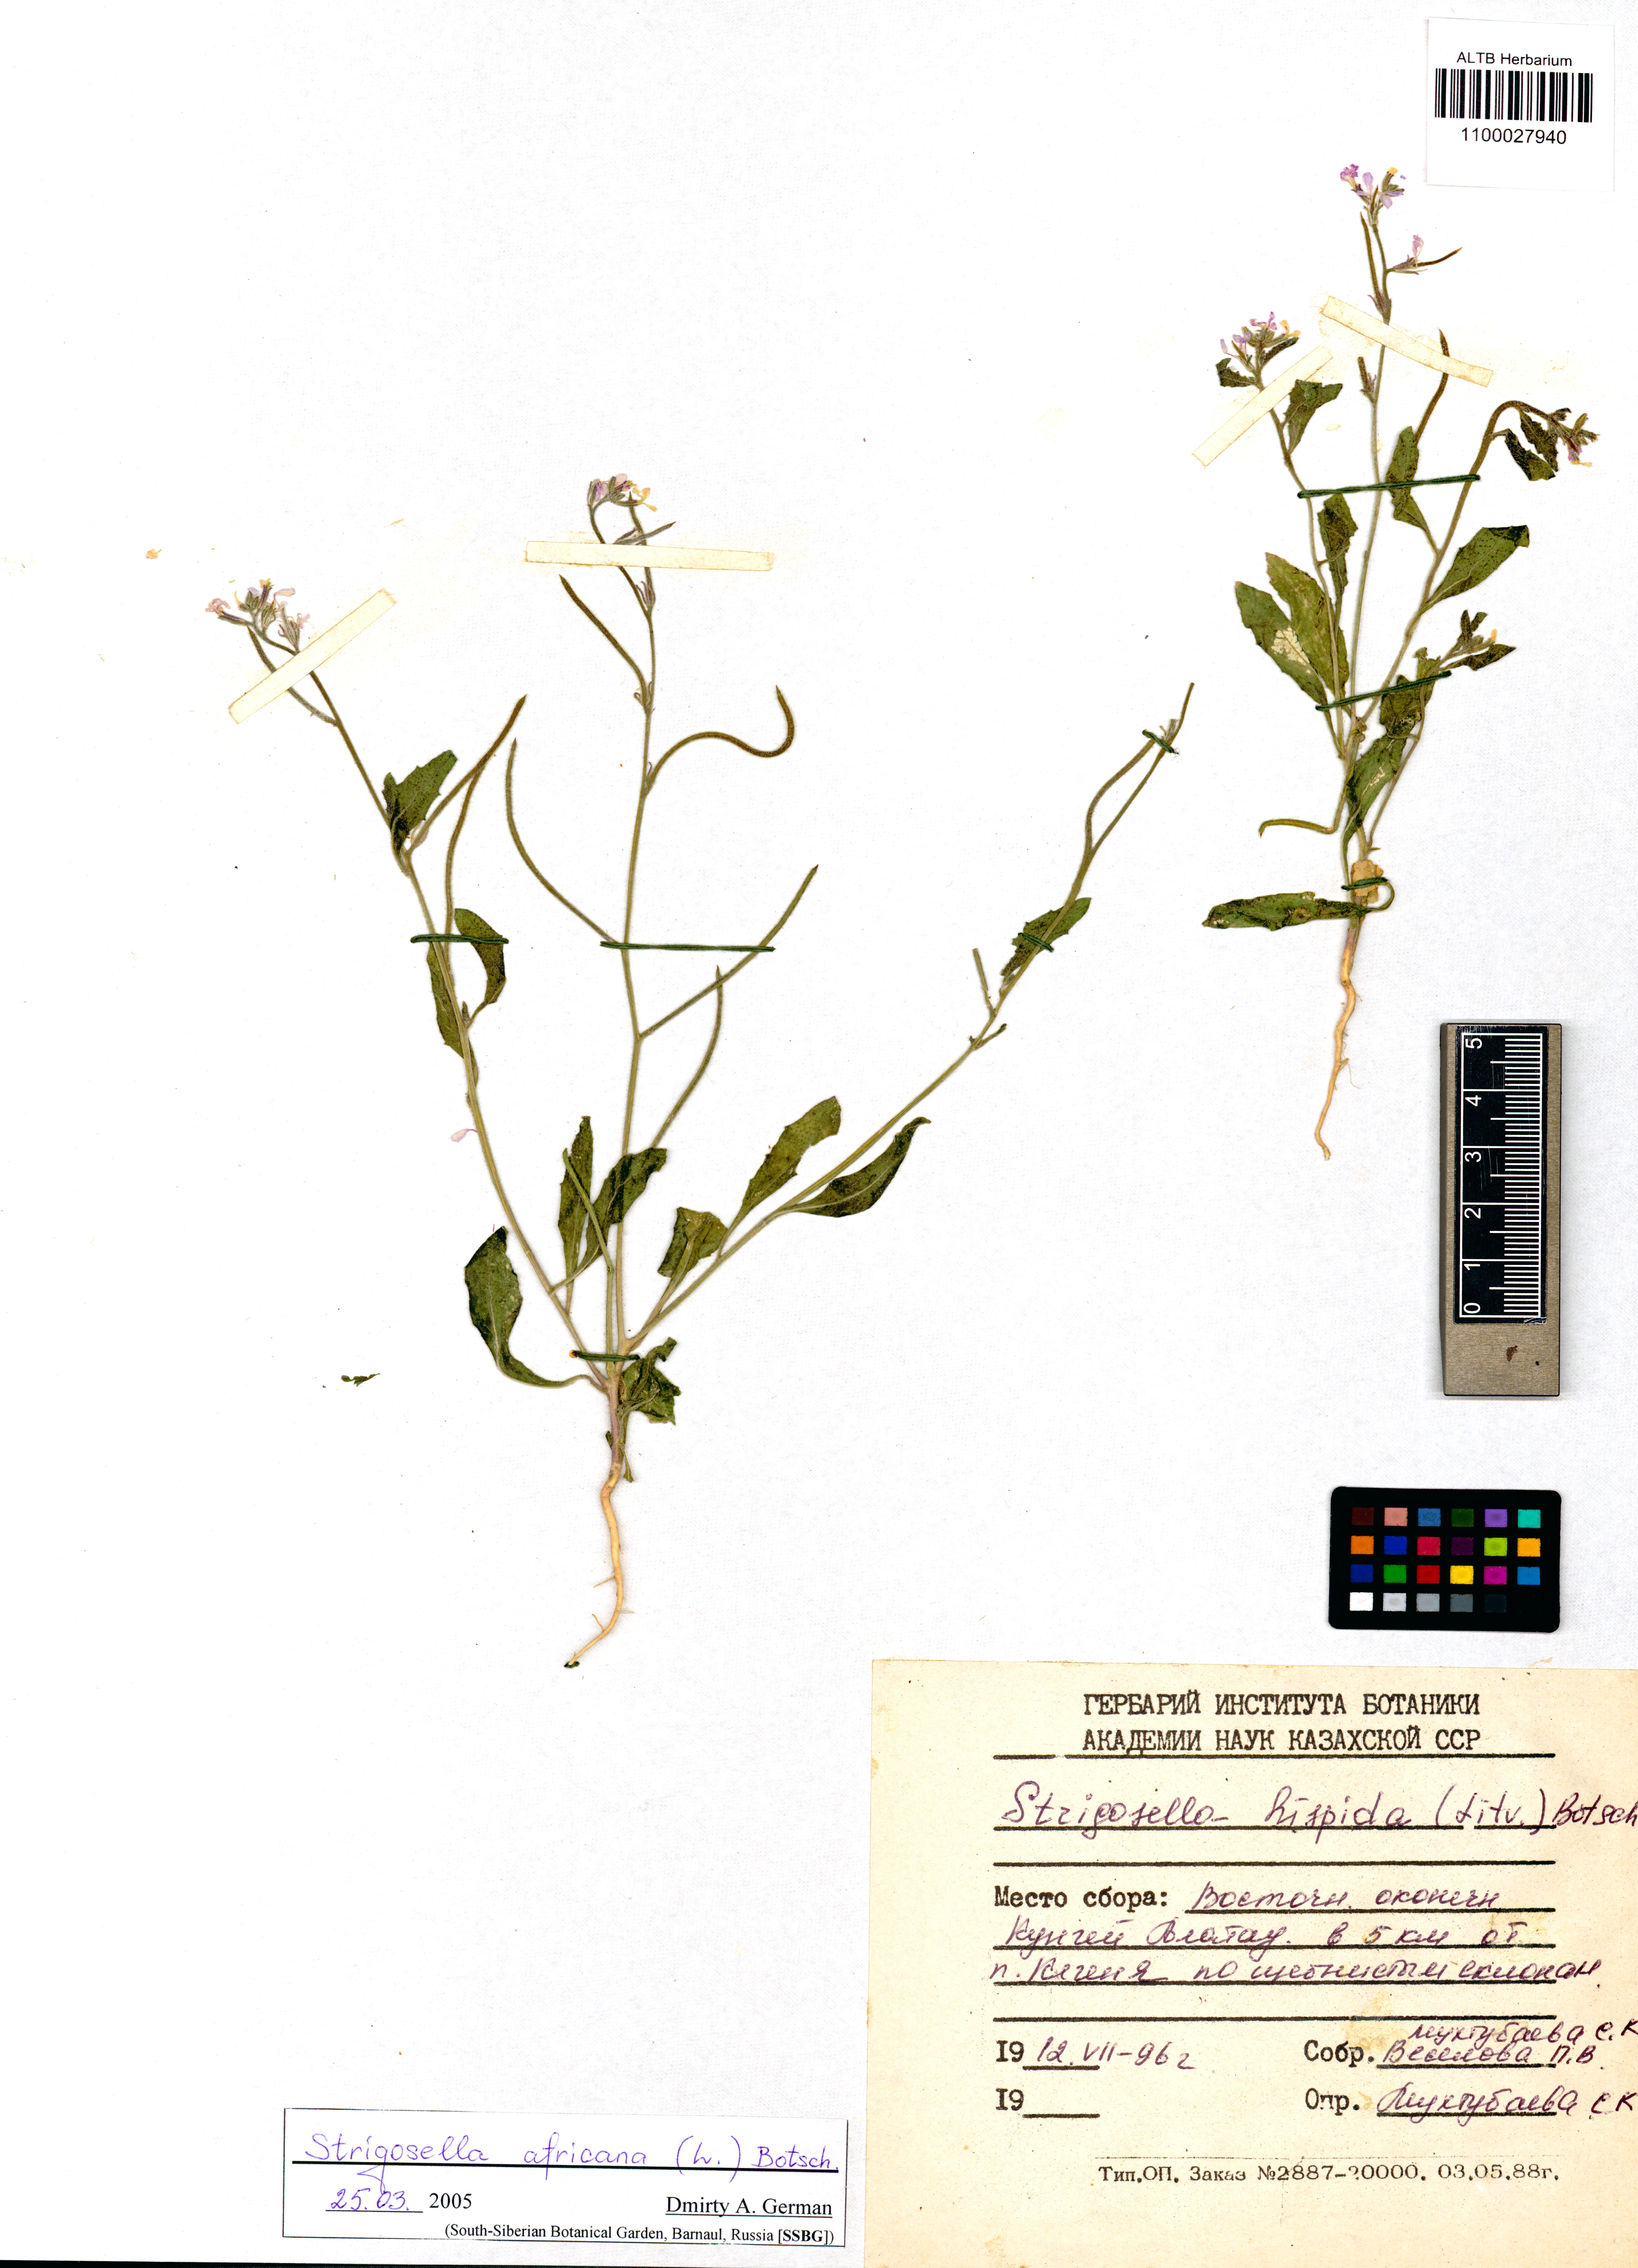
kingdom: Plantae
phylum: Tracheophyta
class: Magnoliopsida
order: Brassicales
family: Brassicaceae
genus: Strigosella
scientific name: Strigosella africana
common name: African mustard
